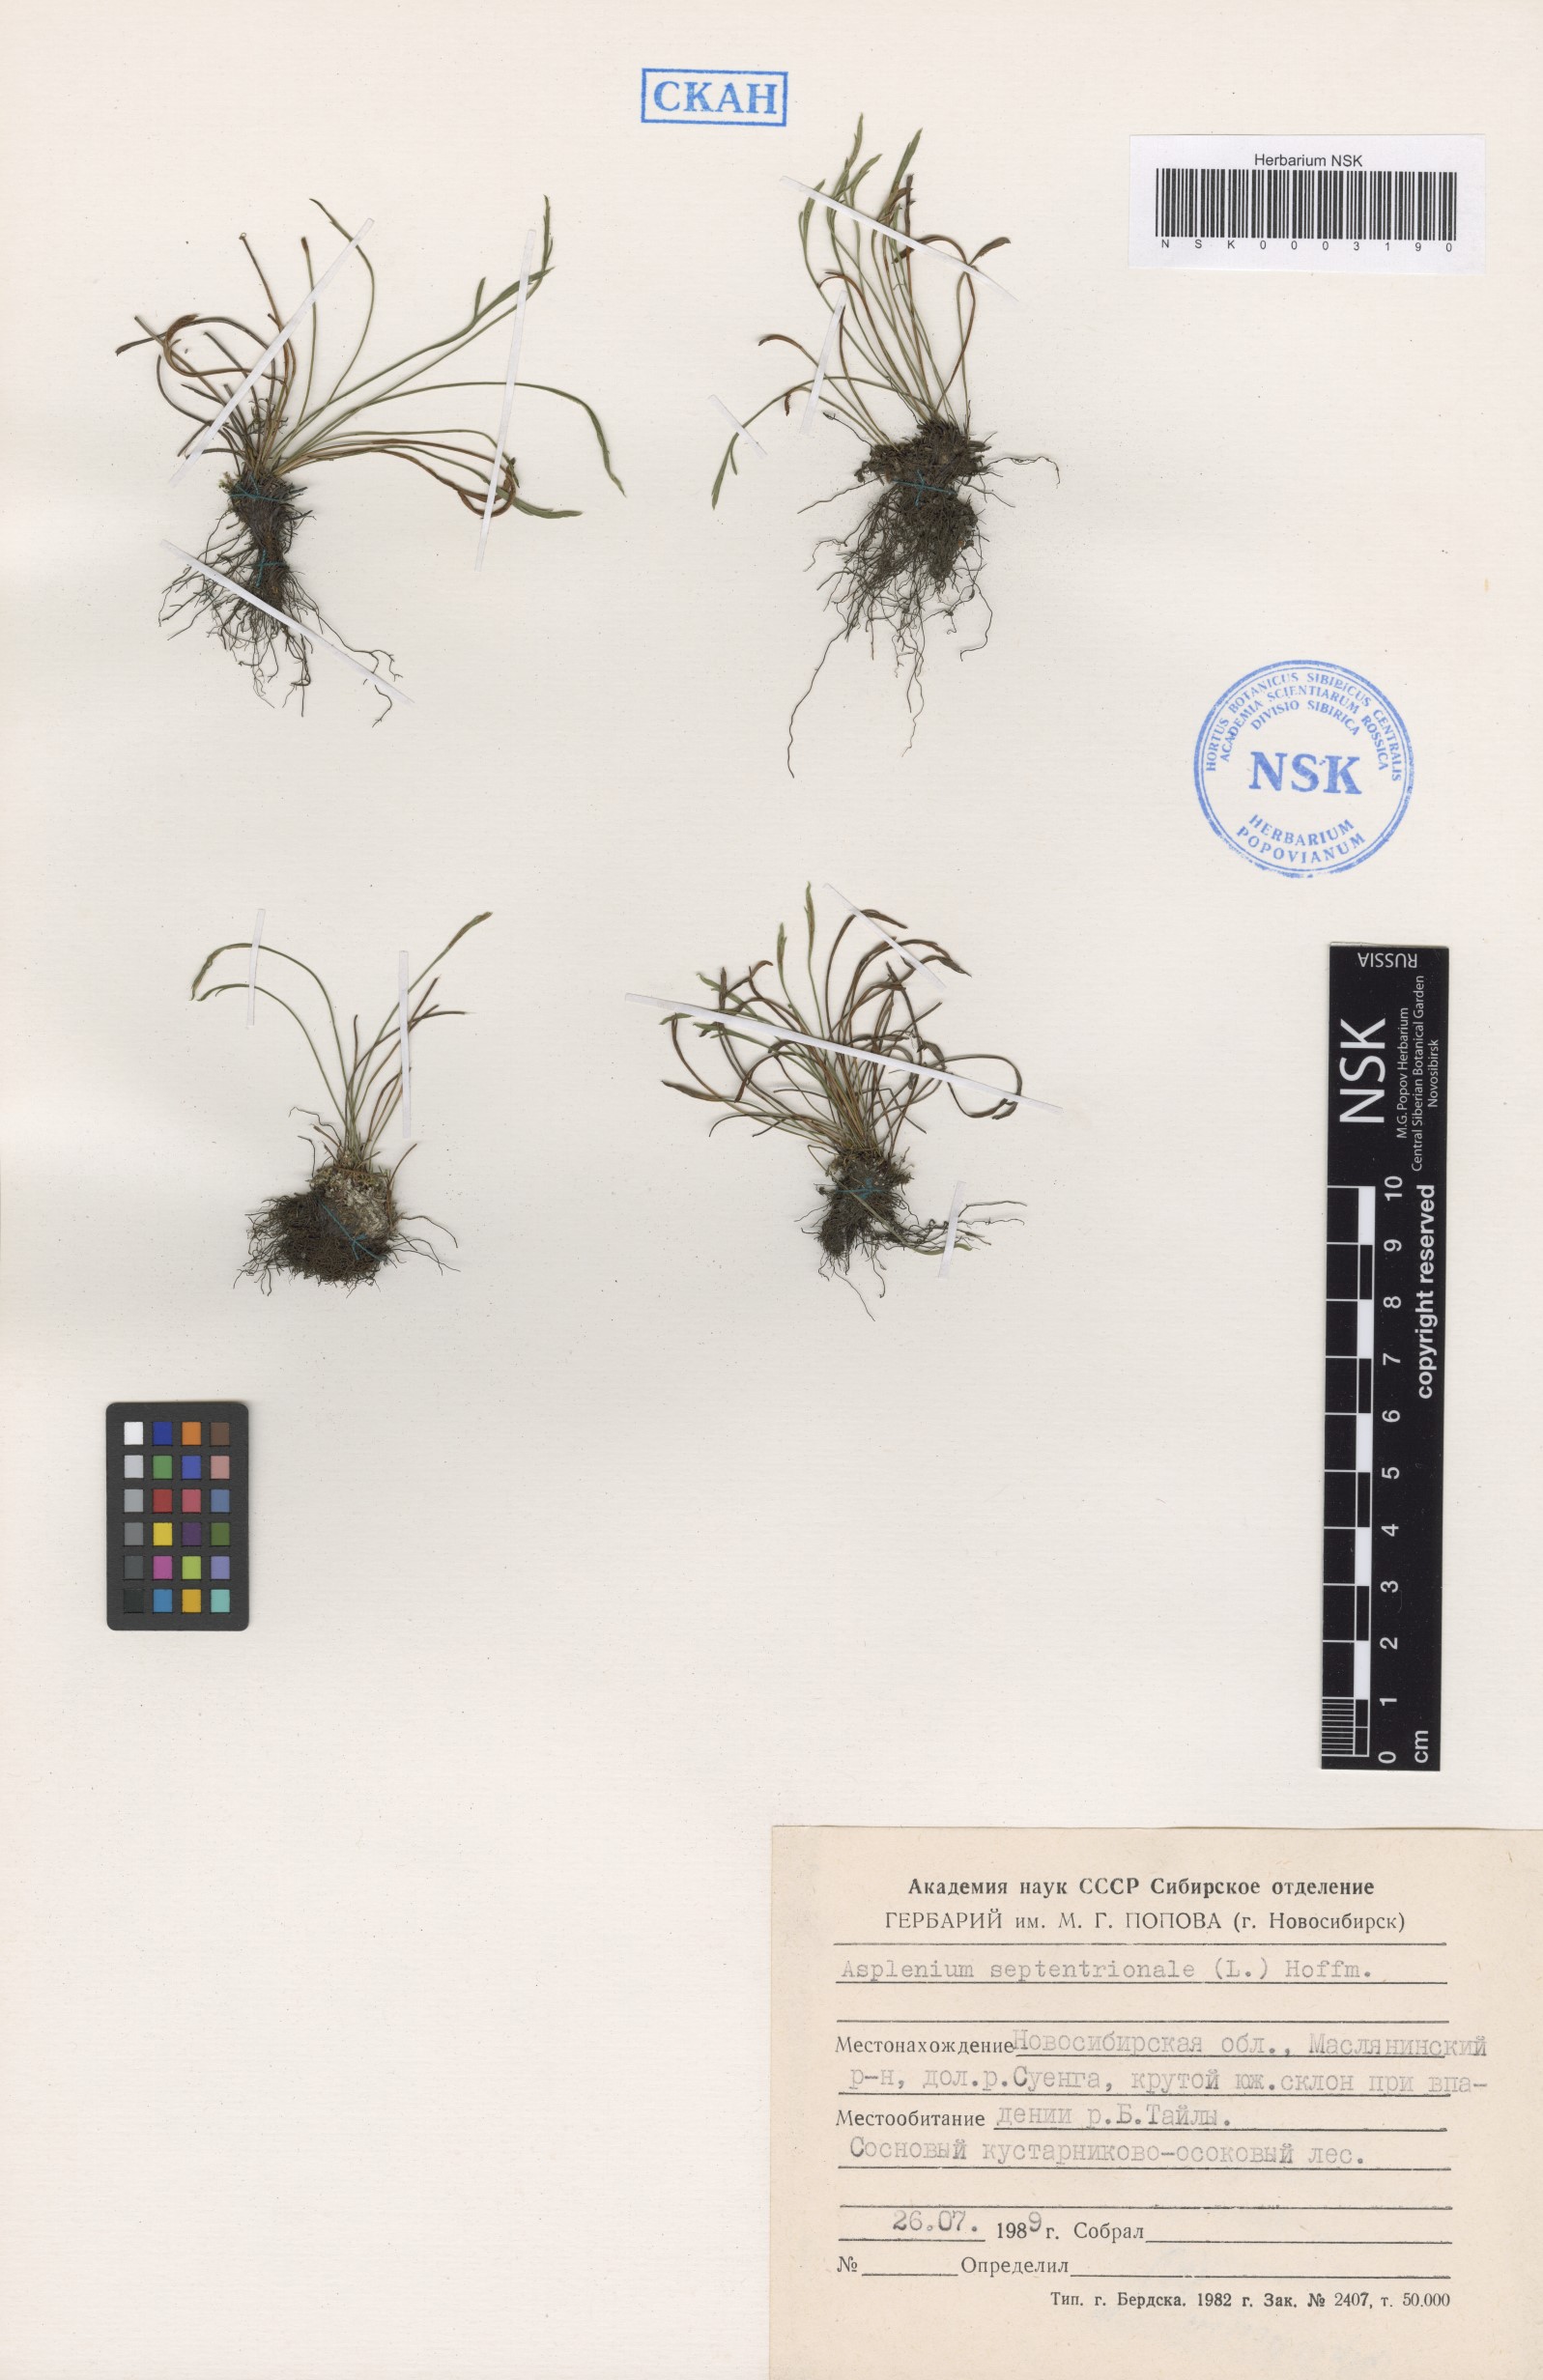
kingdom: Plantae
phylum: Tracheophyta
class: Polypodiopsida
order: Polypodiales
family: Aspleniaceae
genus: Asplenium
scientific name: Asplenium septentrionale
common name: Forked spleenwort
